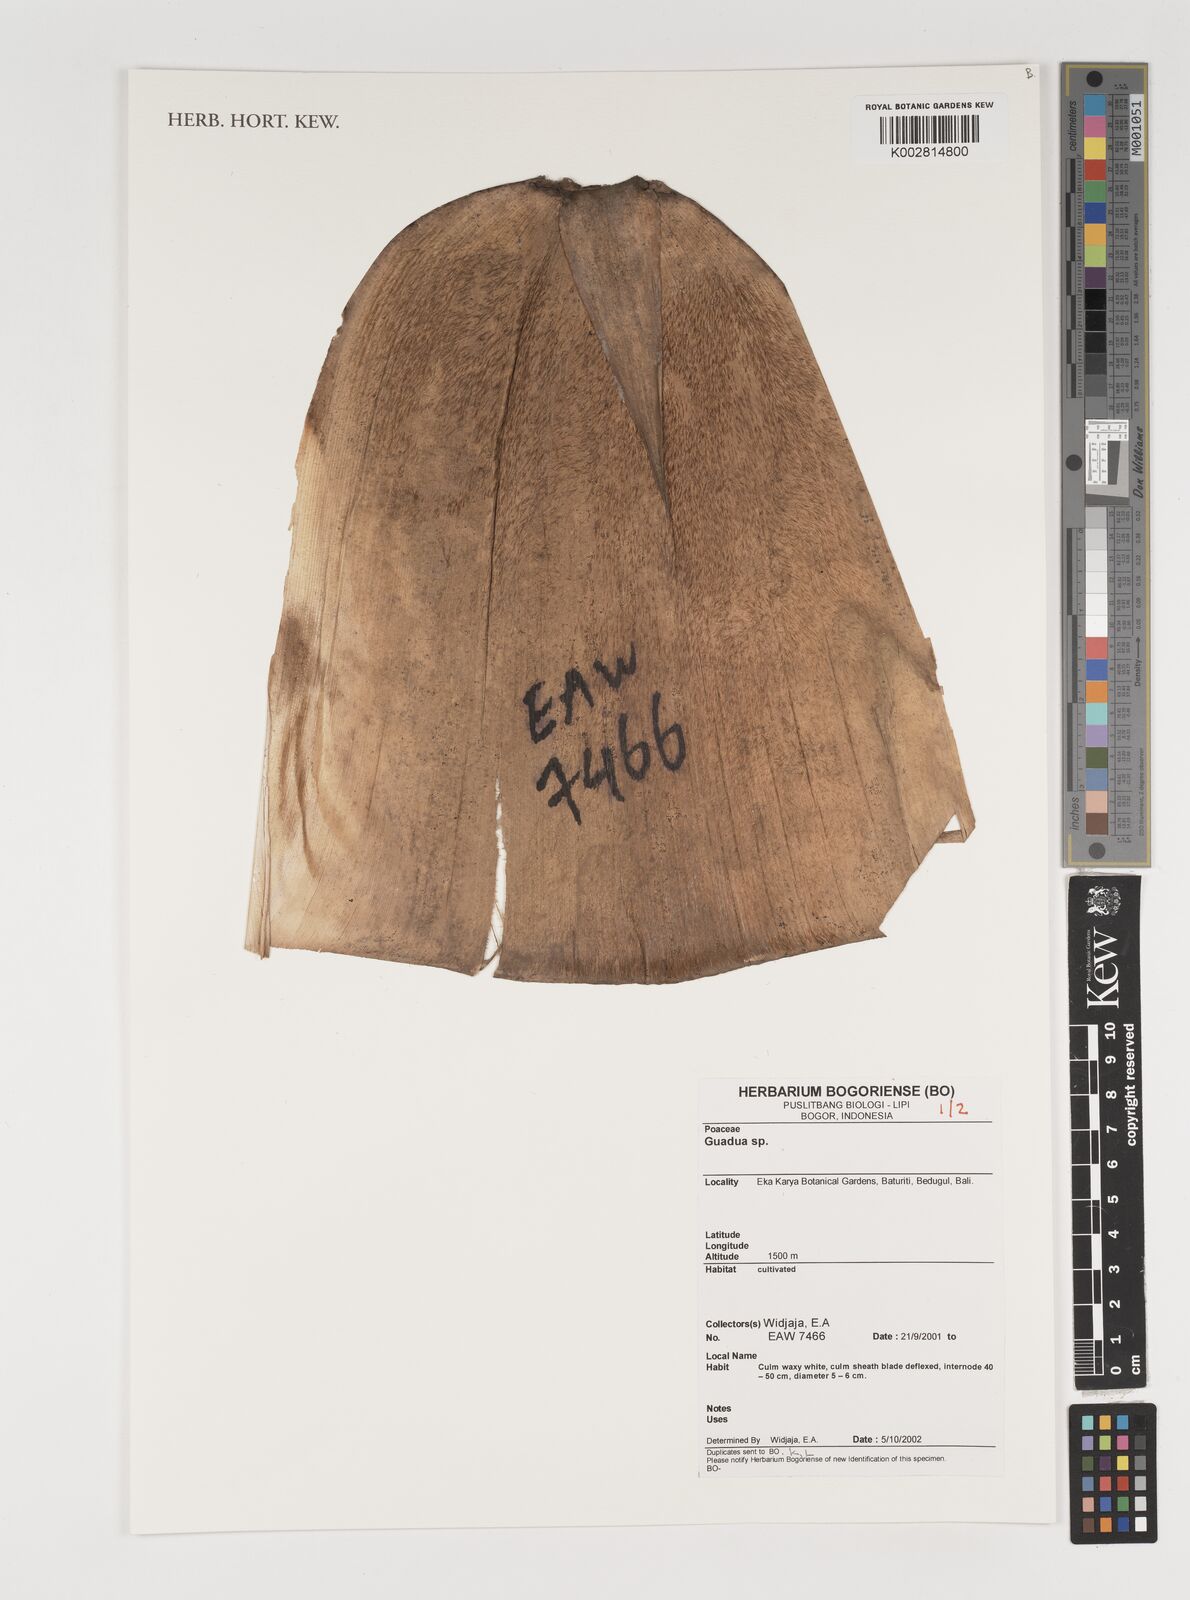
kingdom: Plantae
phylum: Tracheophyta
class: Liliopsida
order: Poales
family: Poaceae
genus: Guadua
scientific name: Guadua
